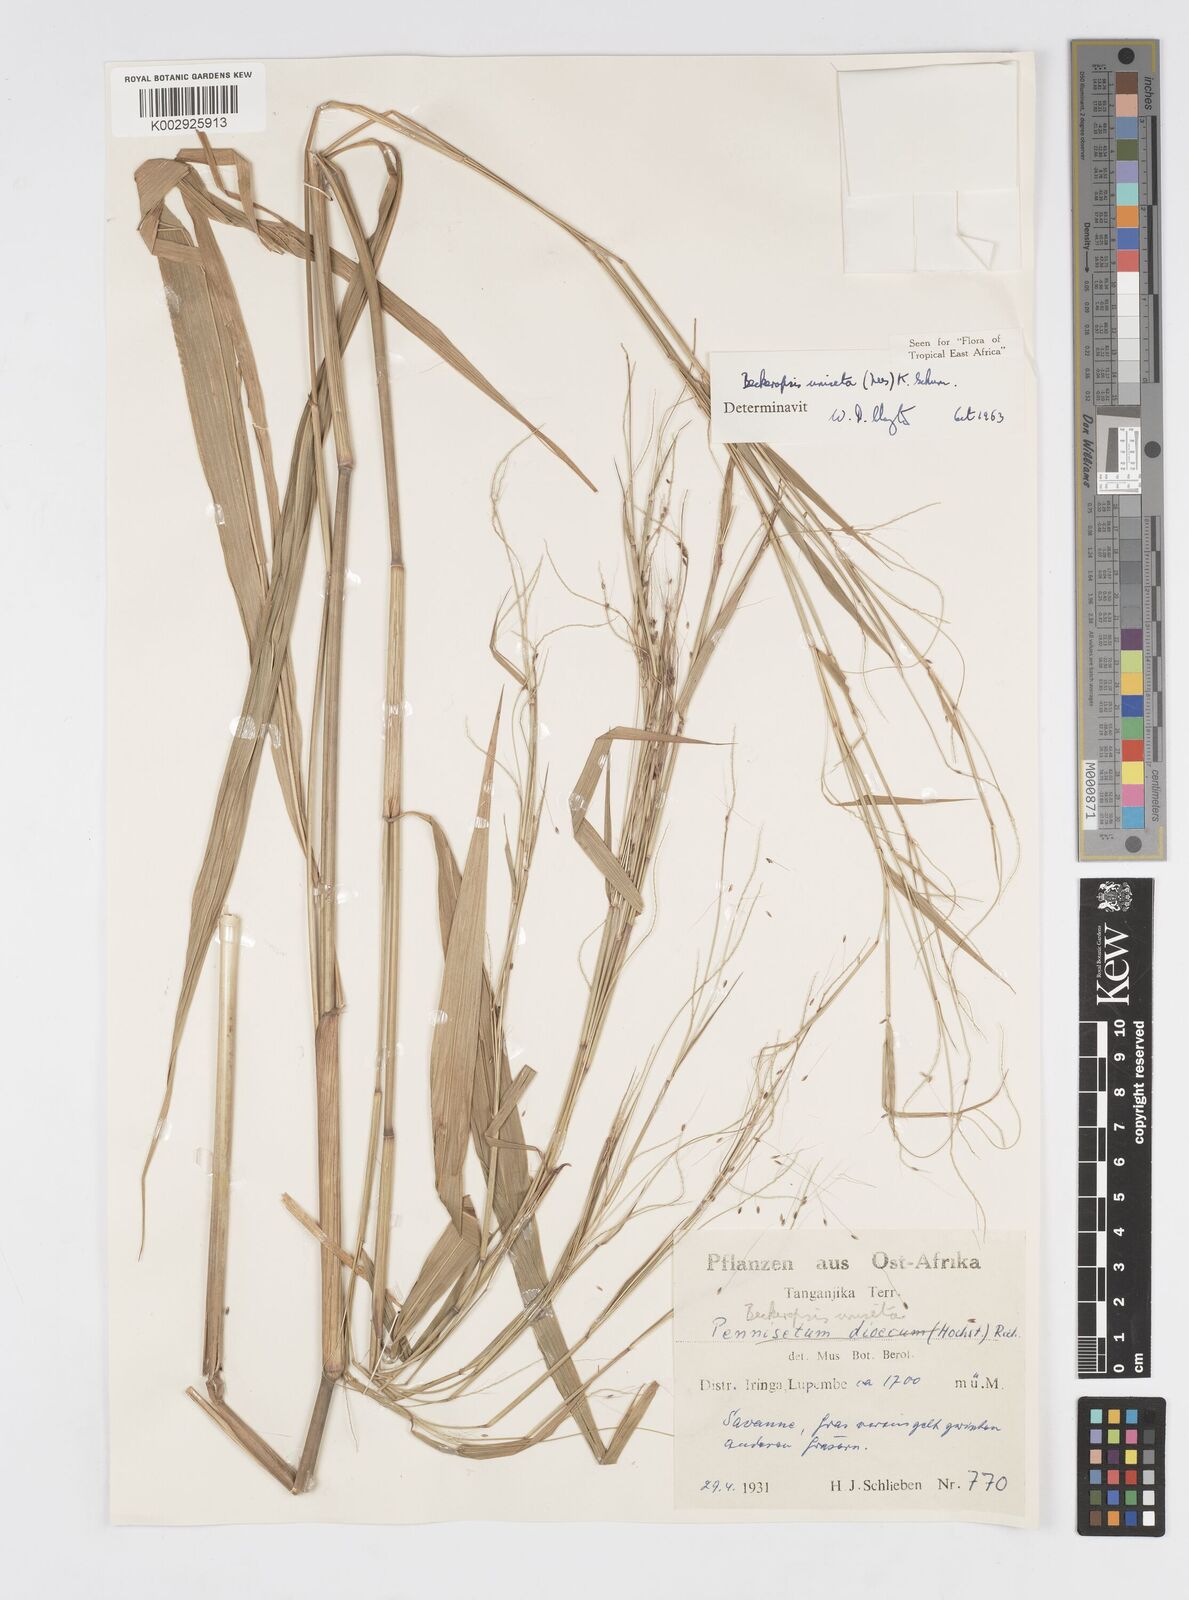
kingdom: Plantae
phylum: Tracheophyta
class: Liliopsida
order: Poales
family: Poaceae
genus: Cenchrus
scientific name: Cenchrus unisetus
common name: Natal grass
